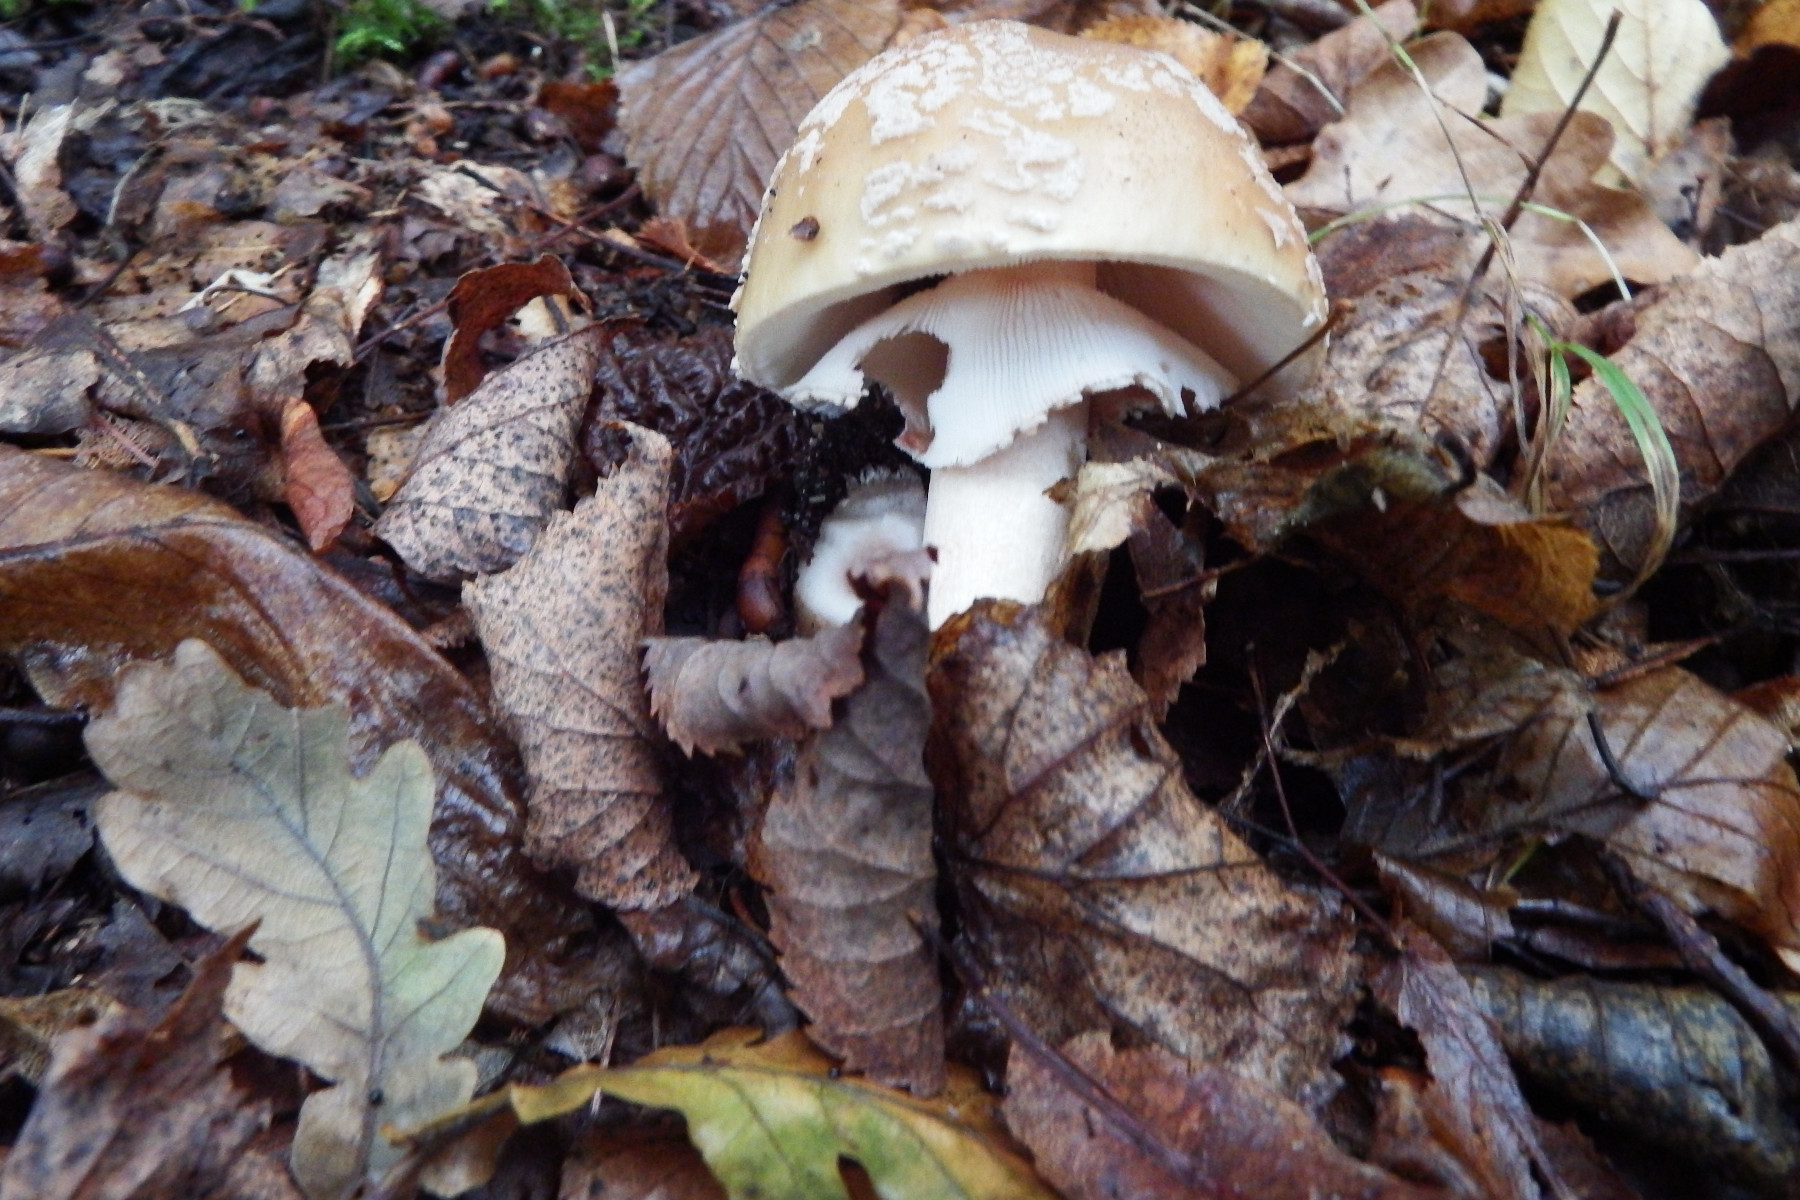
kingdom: Fungi
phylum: Basidiomycota
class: Agaricomycetes
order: Agaricales
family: Amanitaceae
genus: Amanita
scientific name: Amanita rubescens
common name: rødmende fluesvamp
